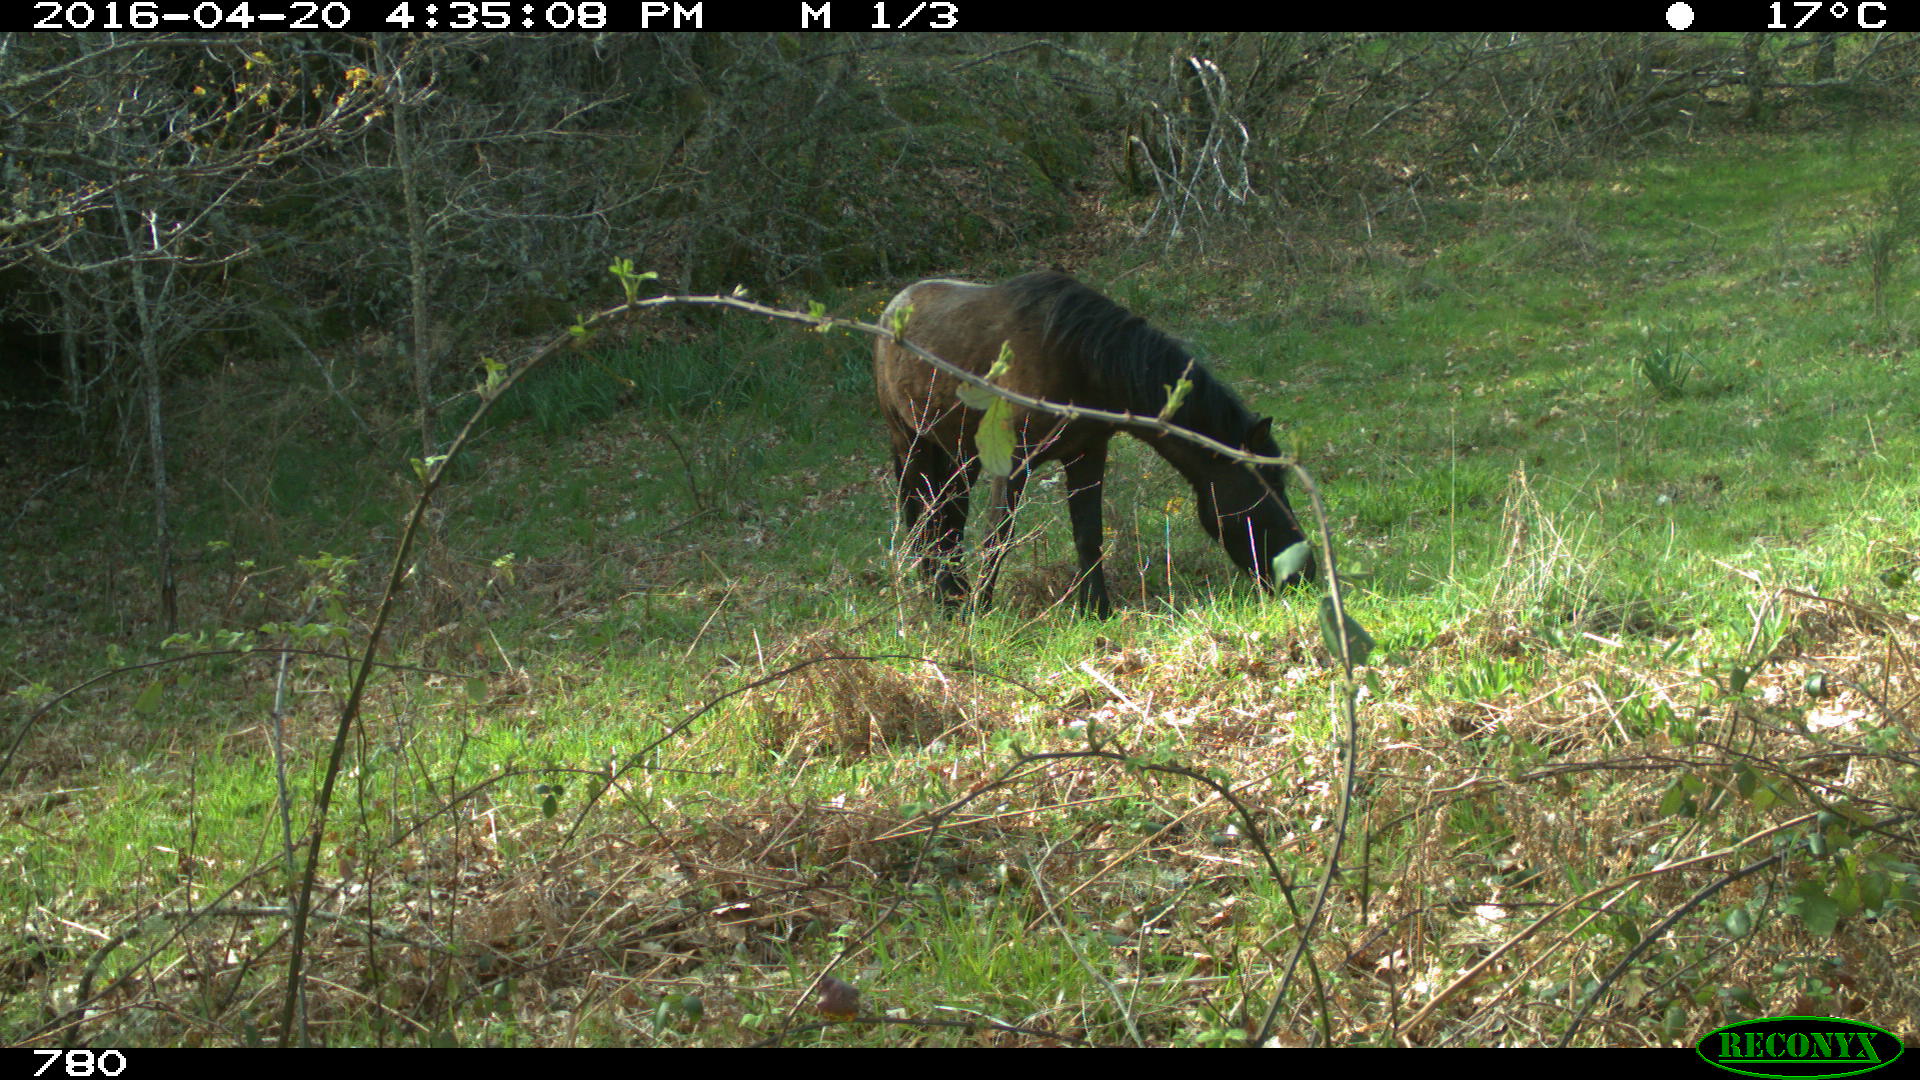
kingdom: Animalia
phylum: Chordata
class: Mammalia
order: Perissodactyla
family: Equidae
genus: Equus
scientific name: Equus caballus
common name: Horse
